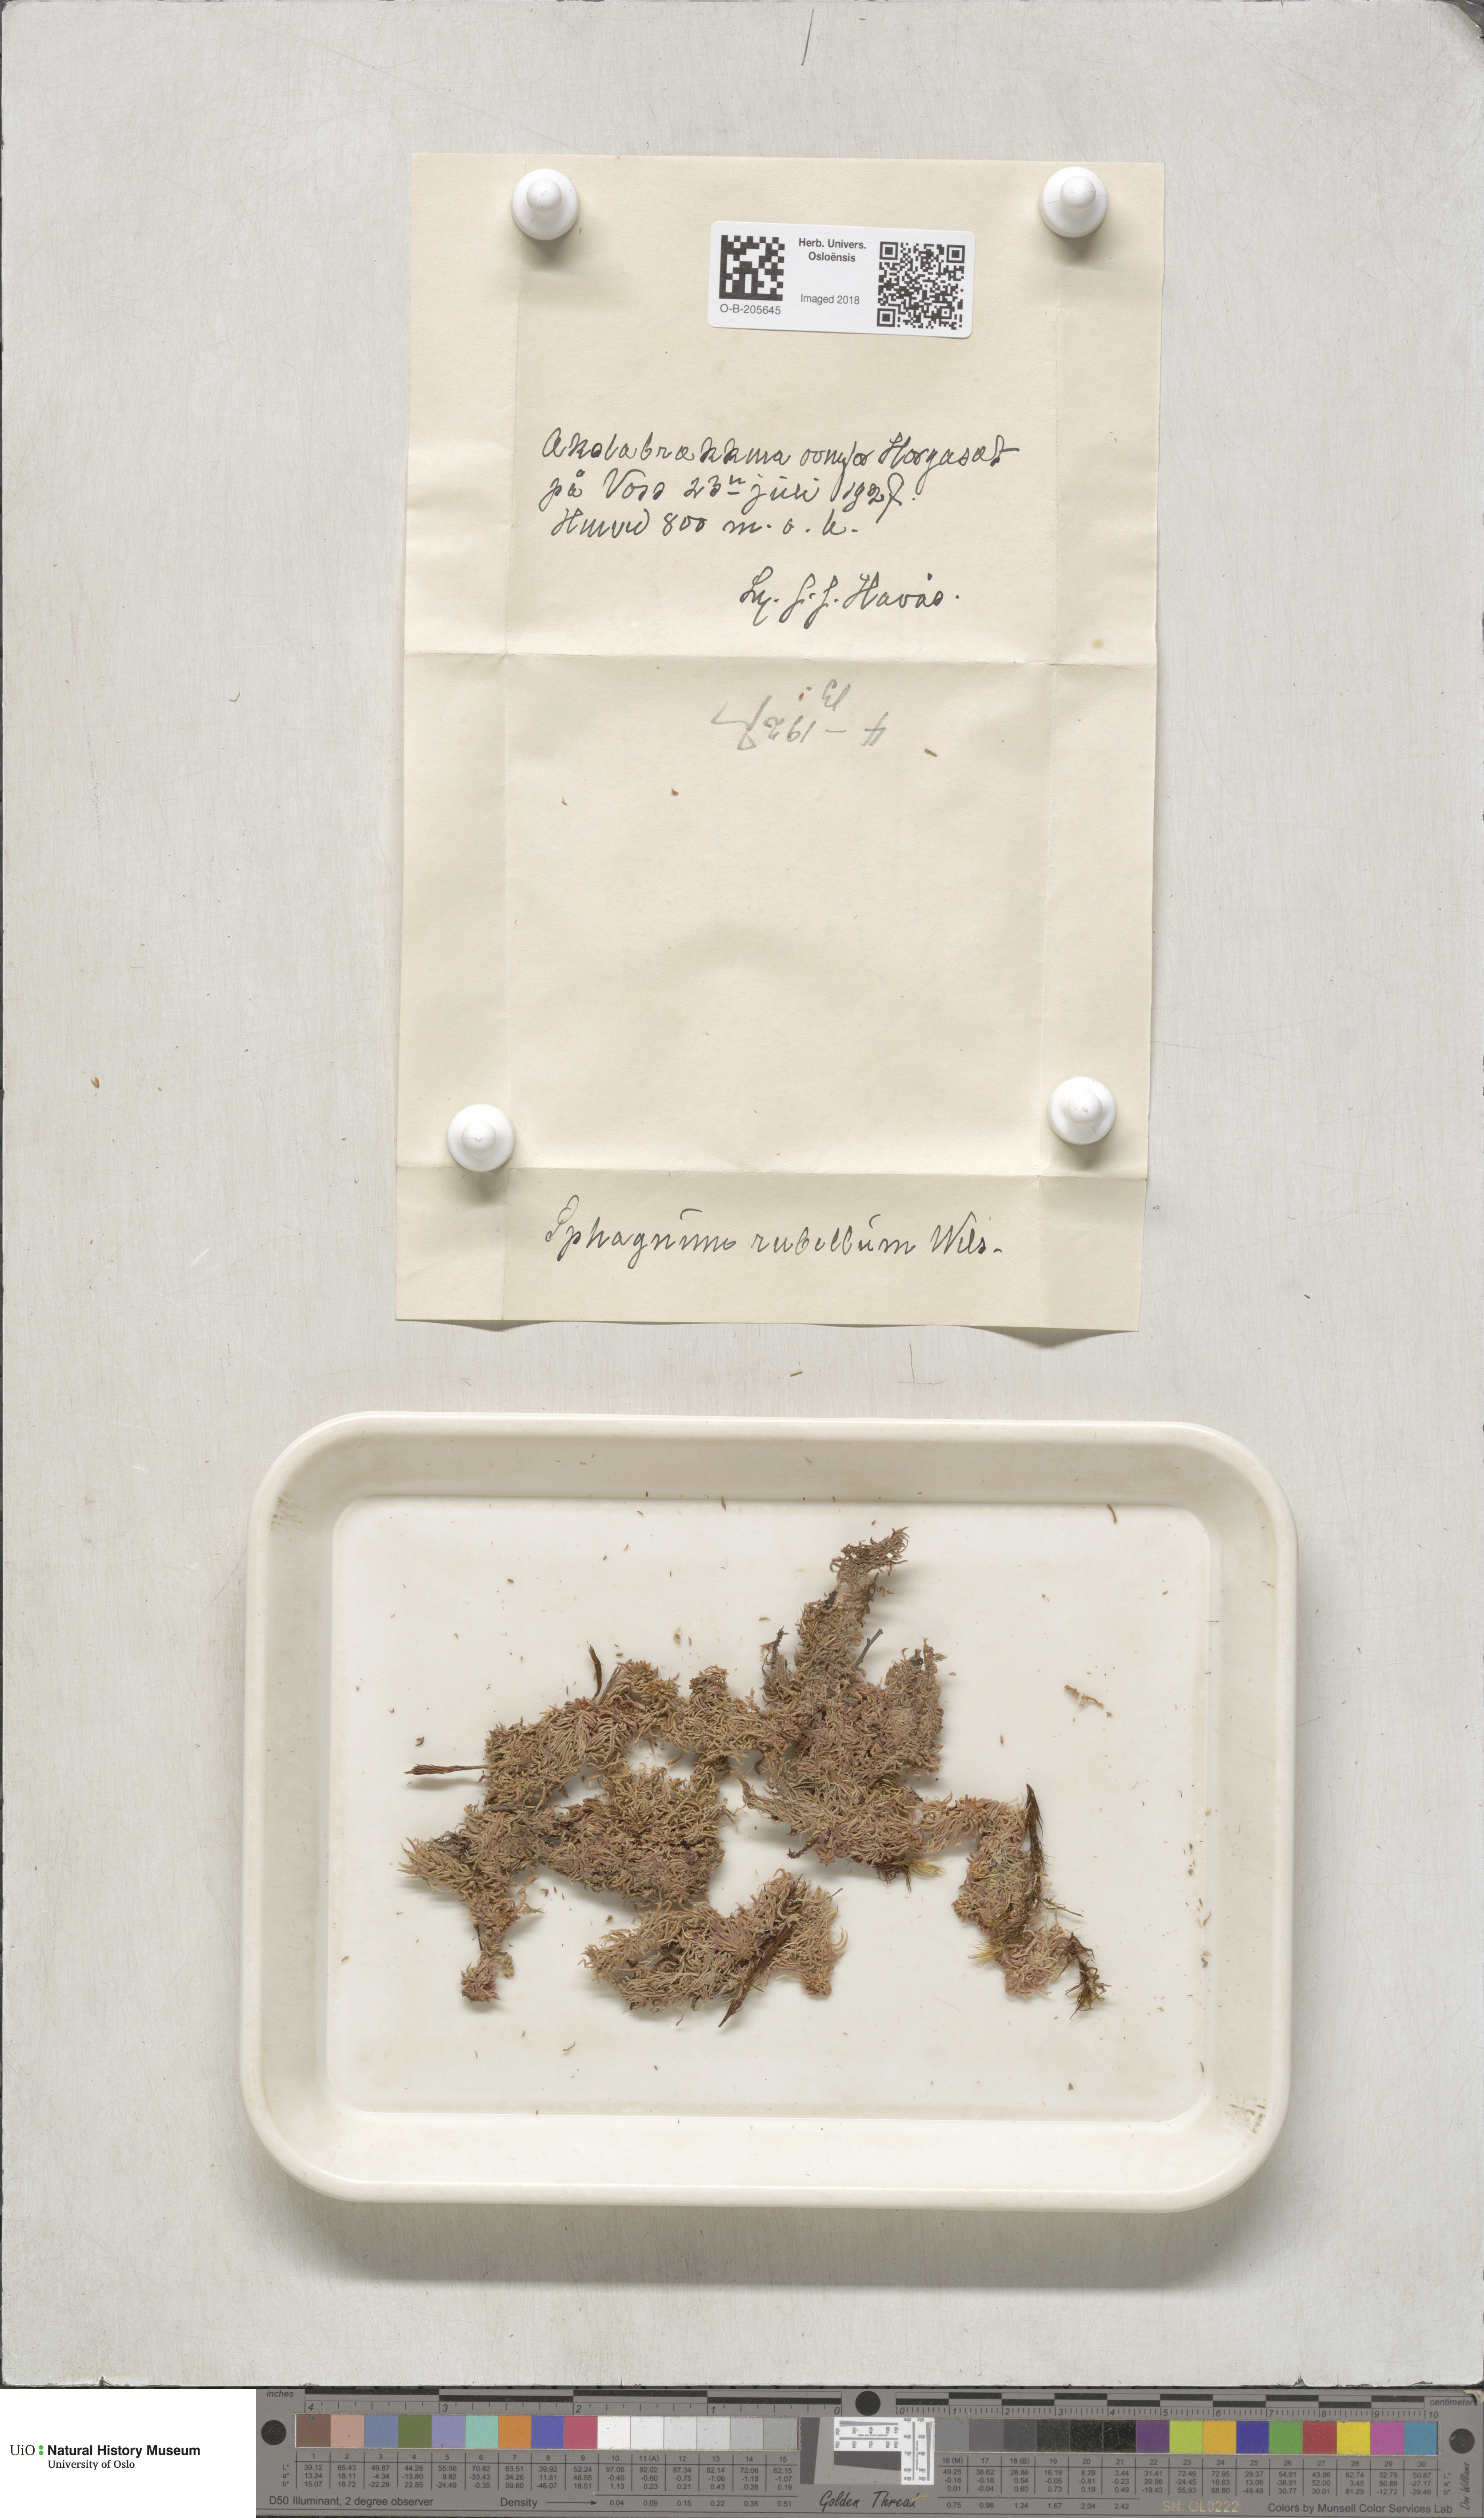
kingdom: Plantae
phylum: Bryophyta
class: Sphagnopsida
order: Sphagnales
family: Sphagnaceae
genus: Sphagnum
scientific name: Sphagnum rubellum
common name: Red peat moss
